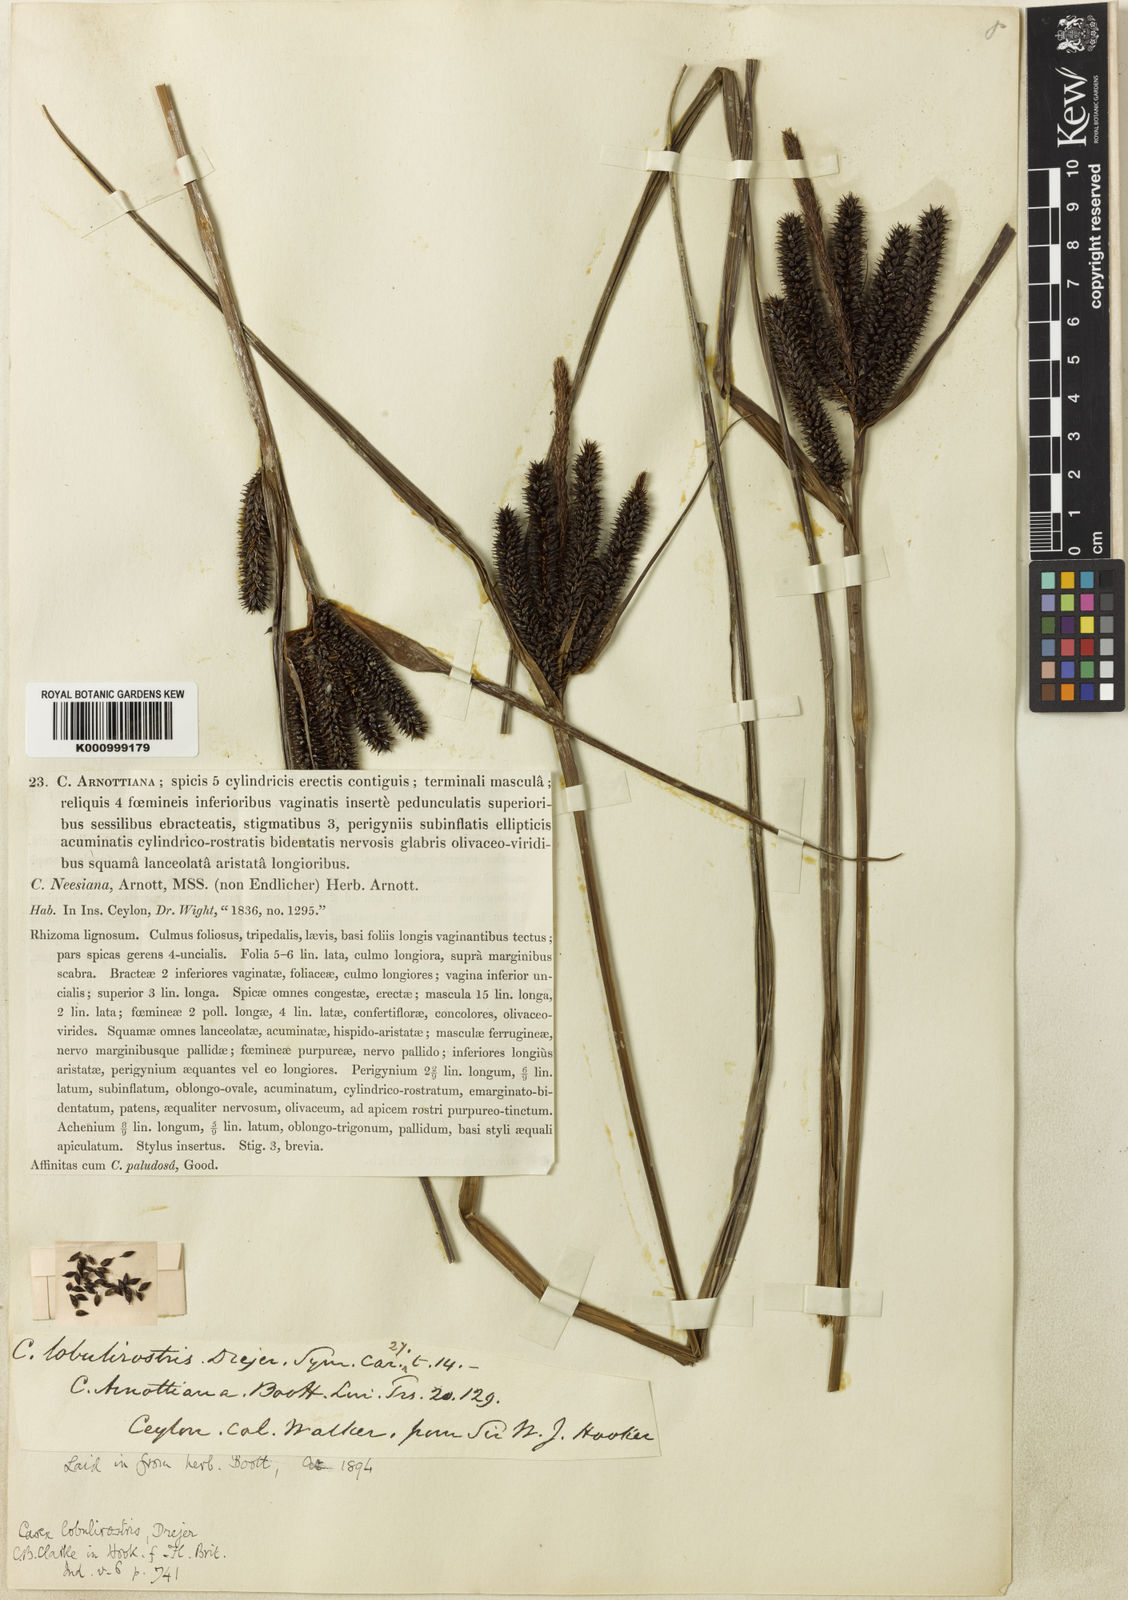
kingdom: Plantae
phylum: Tracheophyta
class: Liliopsida
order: Poales
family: Cyperaceae
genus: Carex
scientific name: Carex lobulirostris
